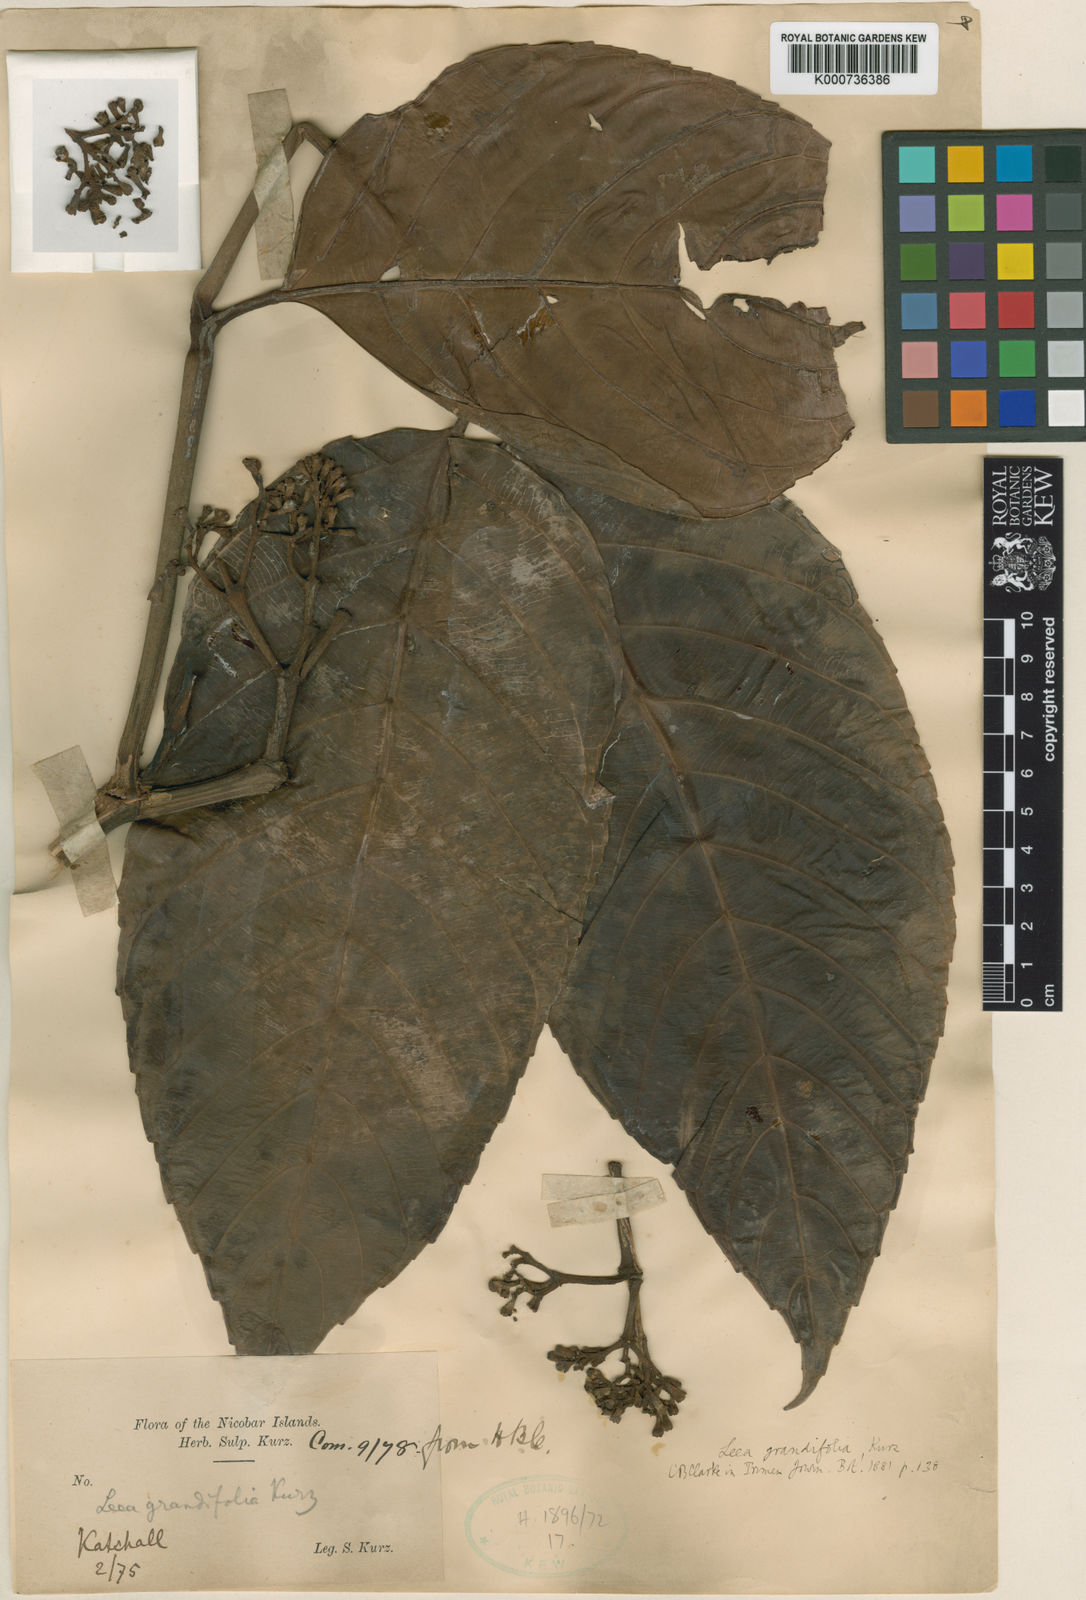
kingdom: Plantae
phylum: Tracheophyta
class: Magnoliopsida
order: Vitales
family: Vitaceae
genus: Leea
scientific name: Leea grandifolia
